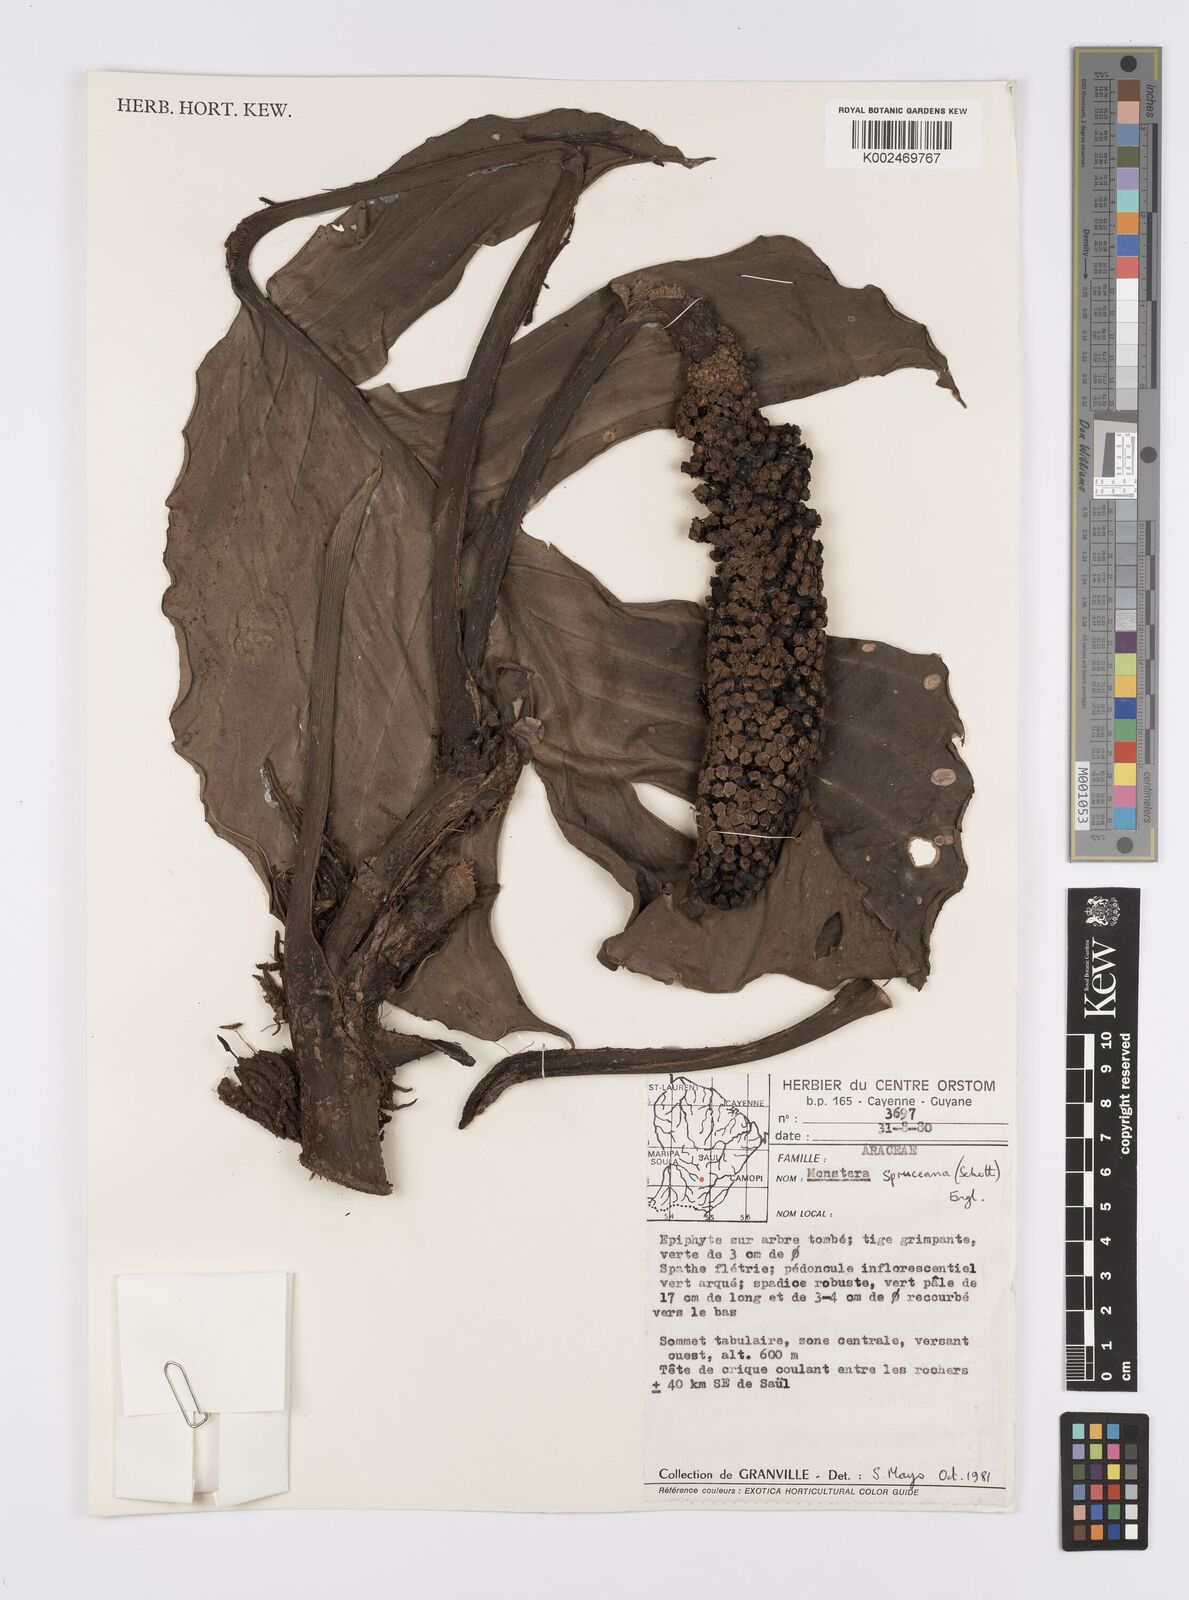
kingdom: Plantae
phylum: Tracheophyta
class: Liliopsida
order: Alismatales
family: Araceae
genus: Monstera
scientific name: Monstera spruceana
